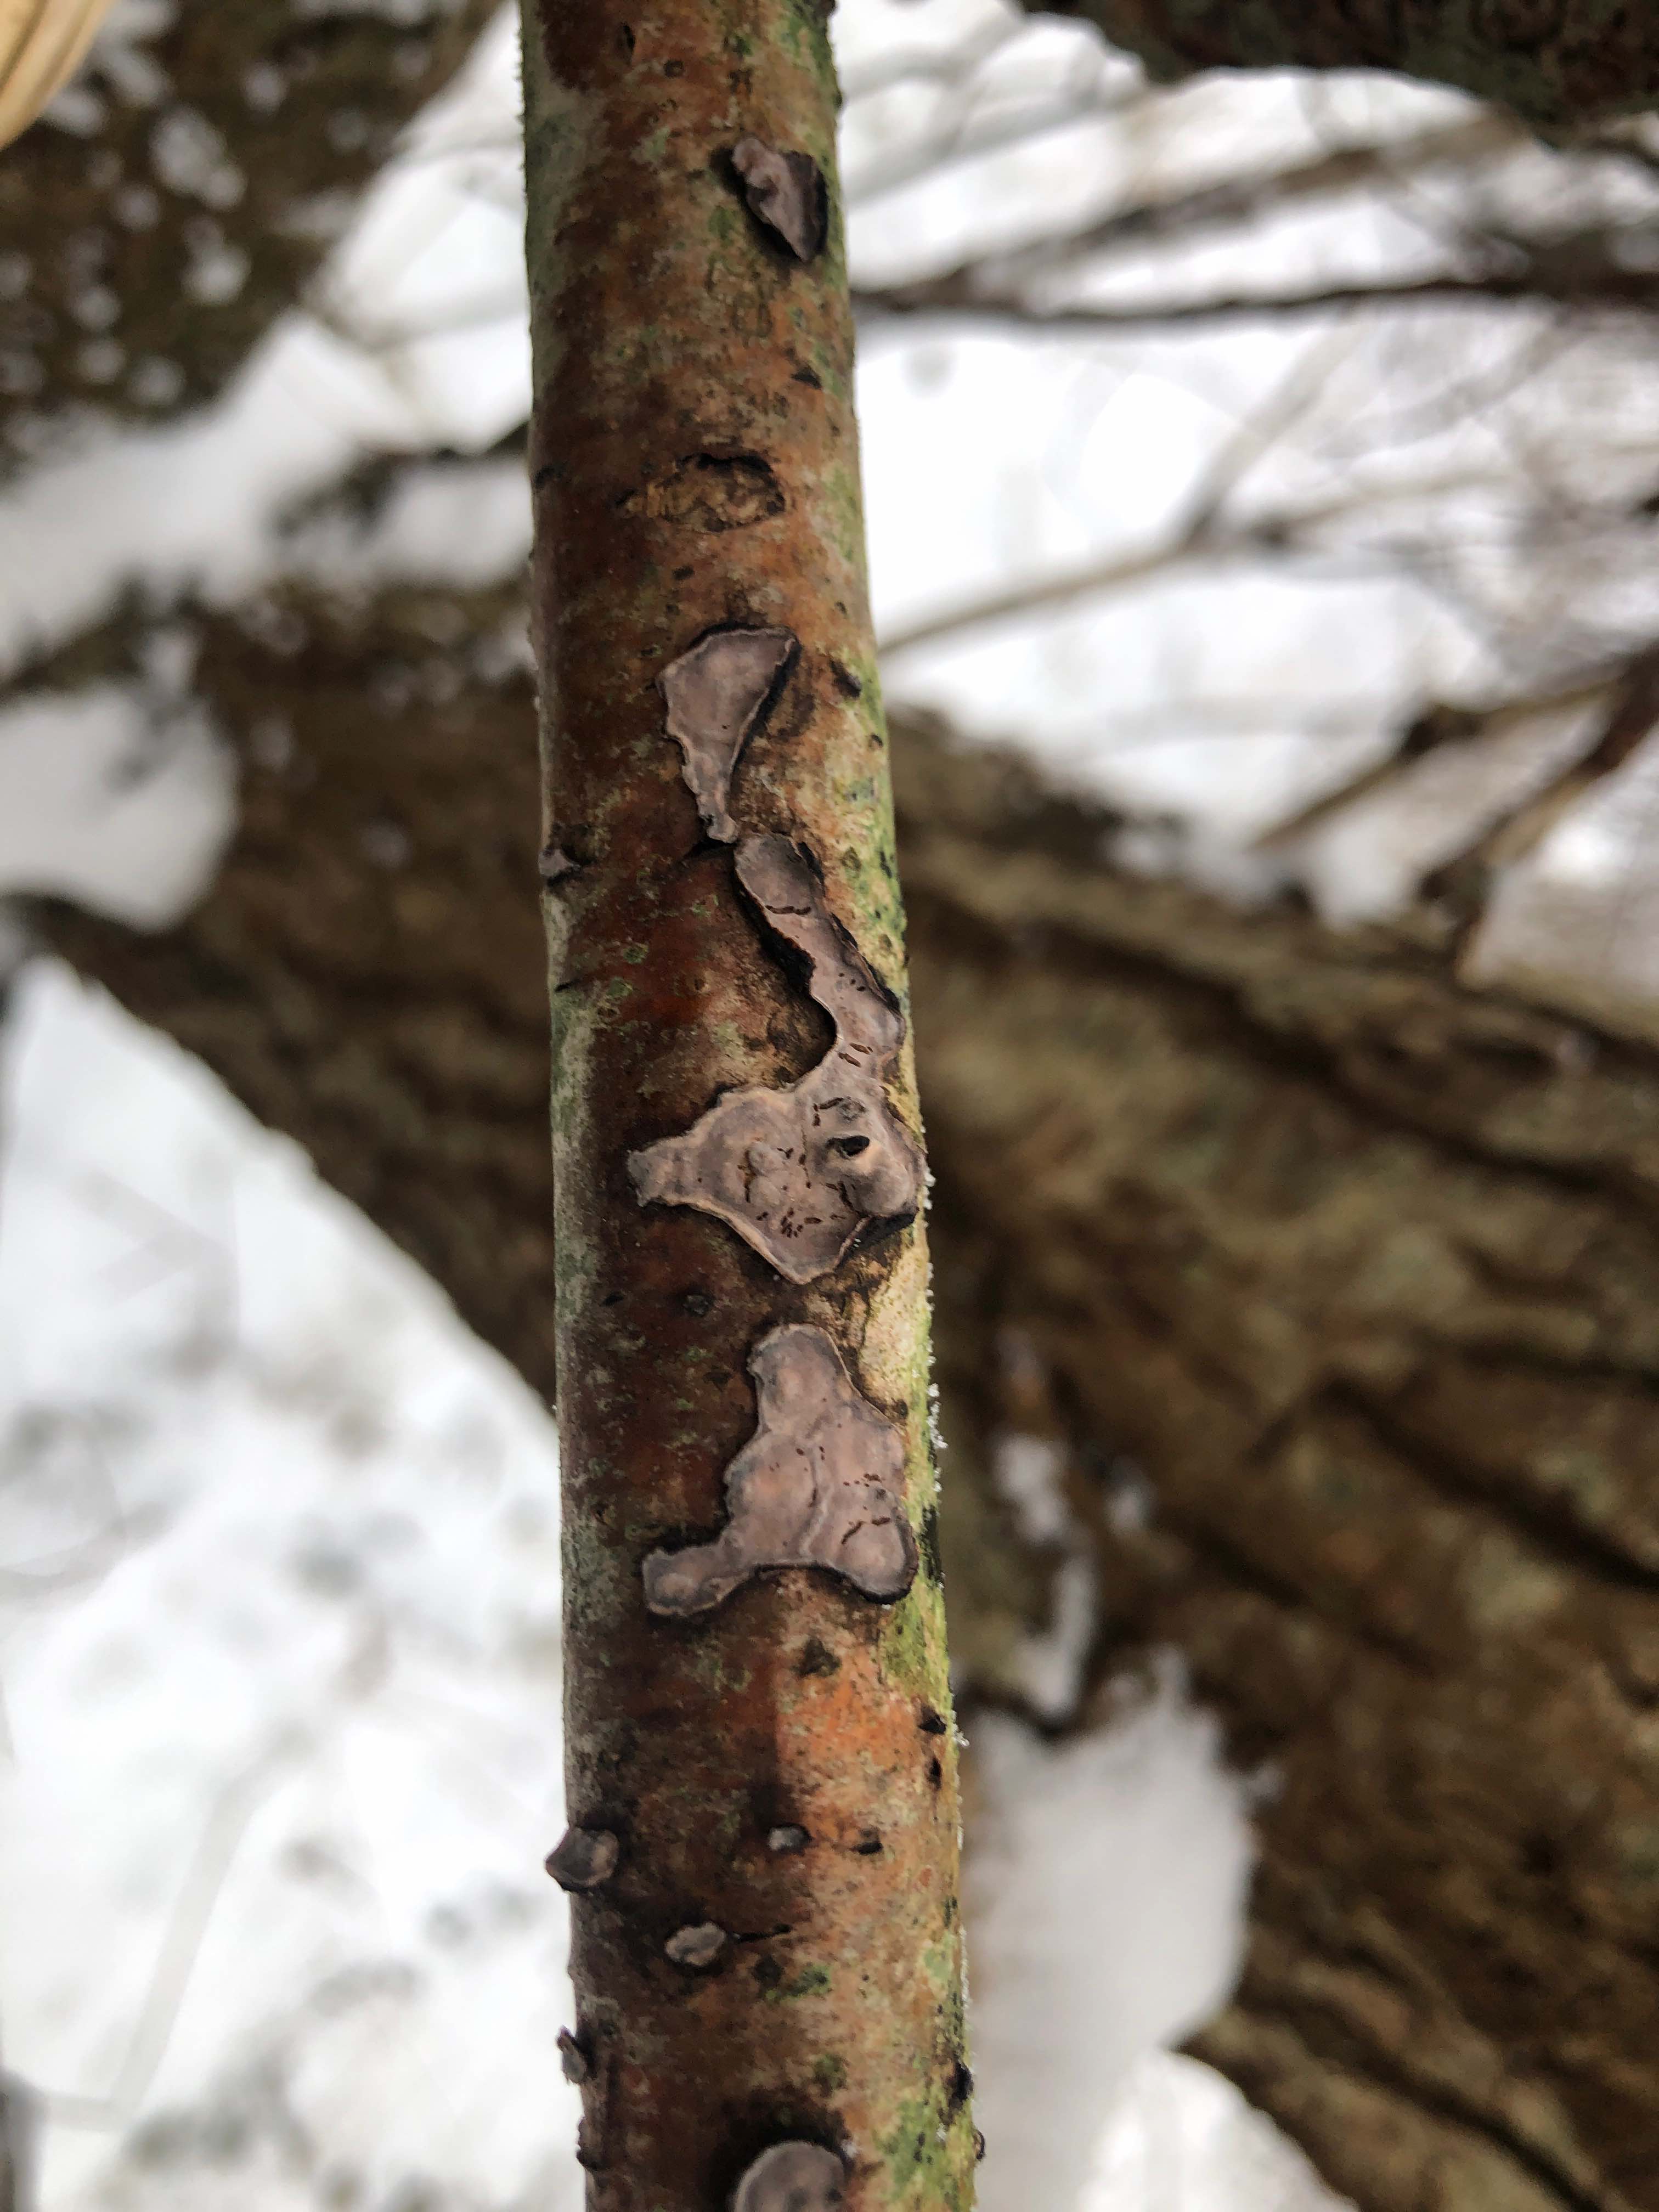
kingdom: Fungi
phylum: Basidiomycota
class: Agaricomycetes
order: Russulales
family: Peniophoraceae
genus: Peniophora
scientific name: Peniophora quercina
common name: ege-voksskind
